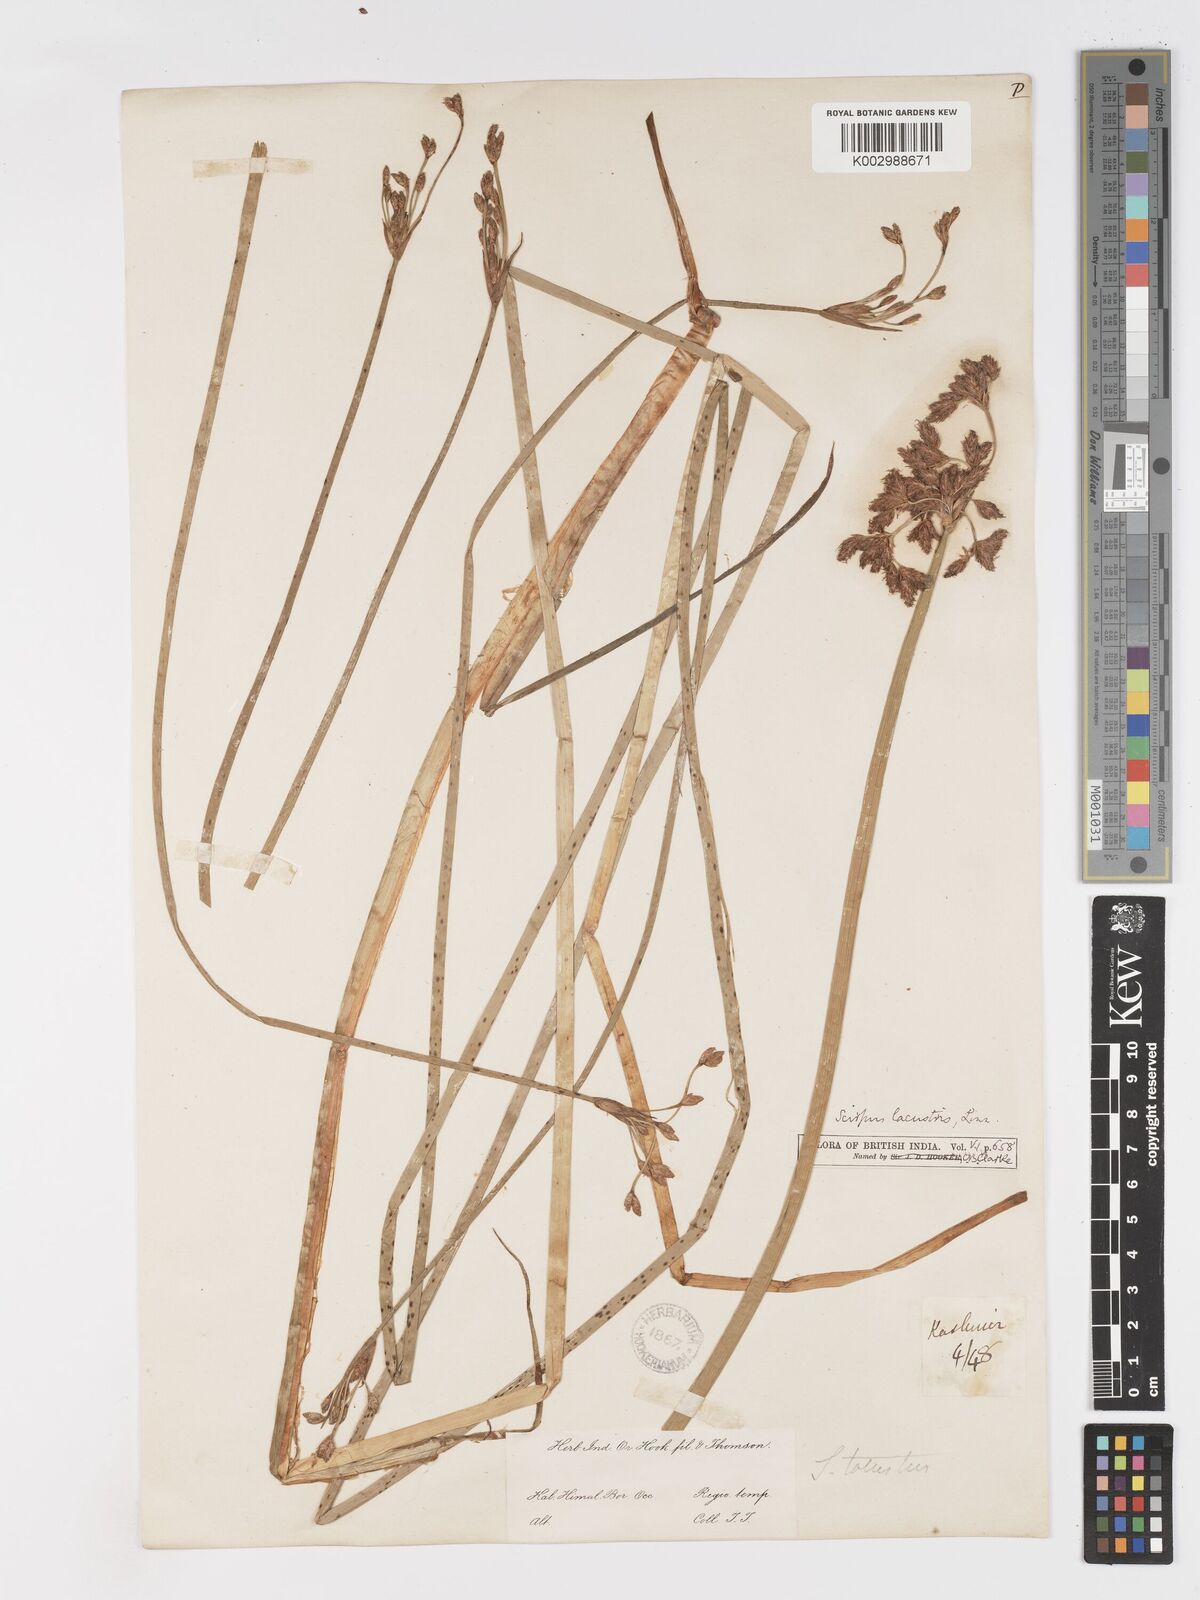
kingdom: Plantae
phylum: Tracheophyta
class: Liliopsida
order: Poales
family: Cyperaceae
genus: Schoenoplectus
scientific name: Schoenoplectus lacustris
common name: Common club-rush
